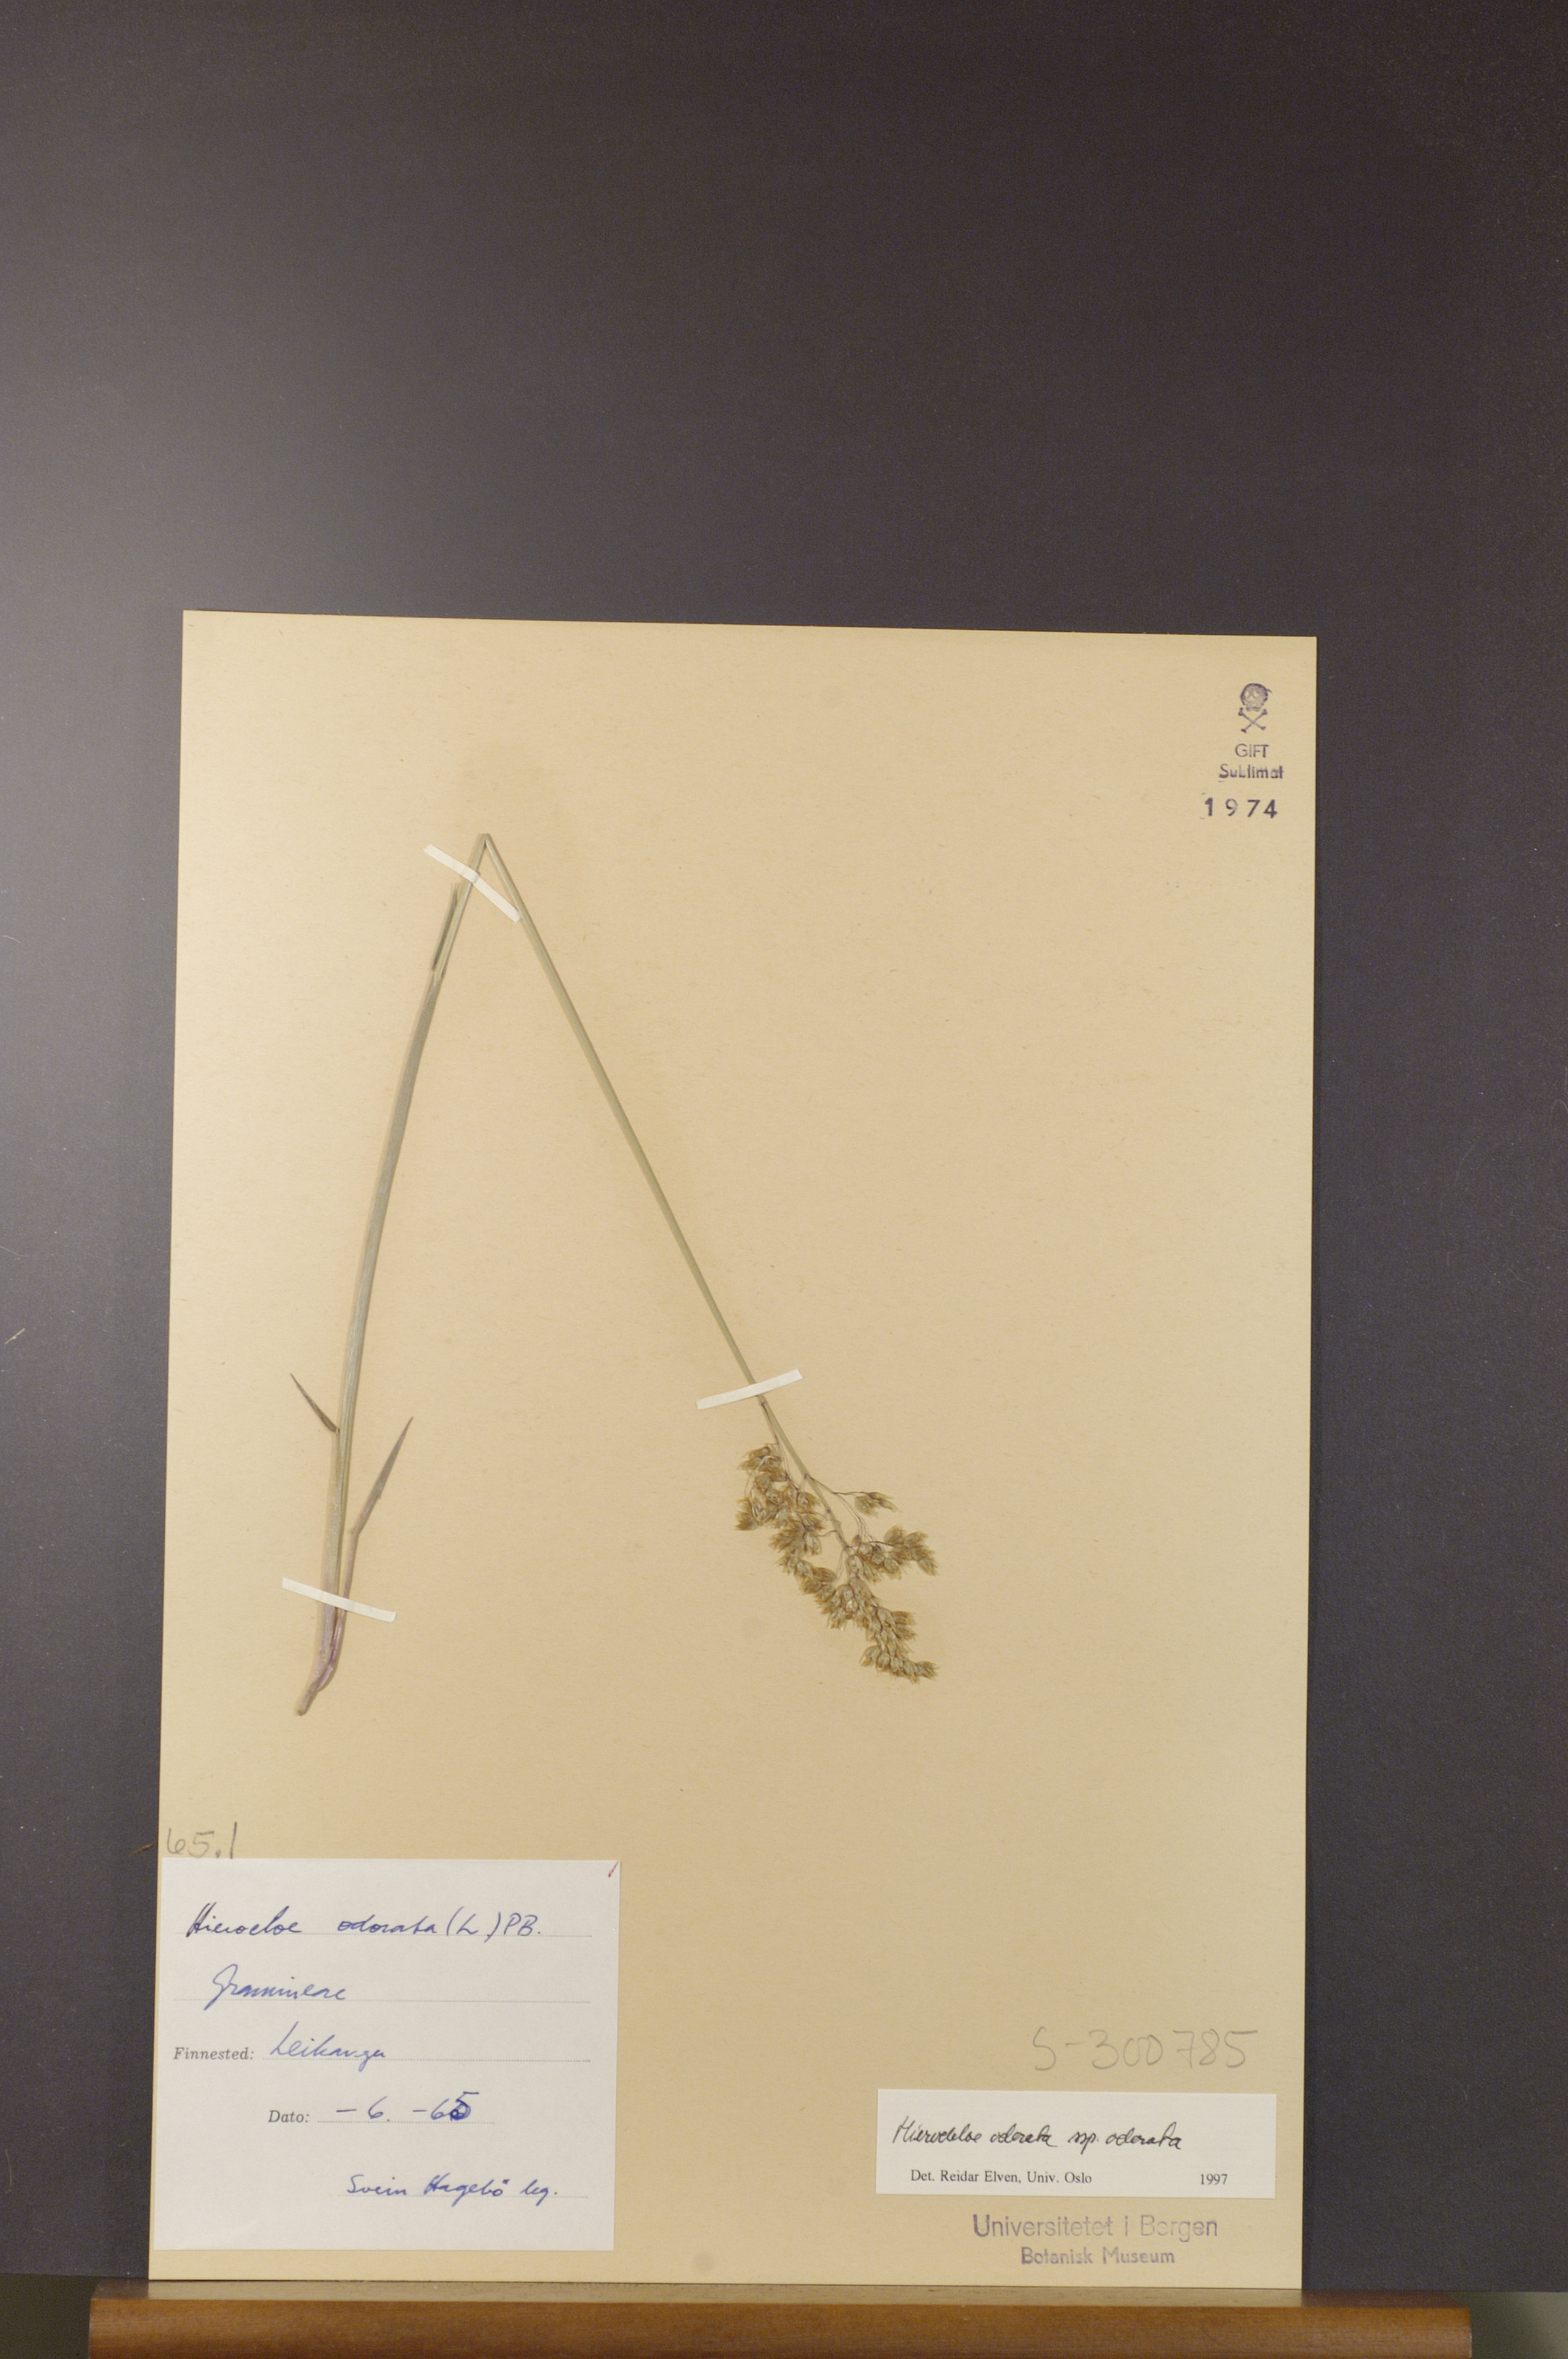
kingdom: Plantae
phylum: Tracheophyta
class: Liliopsida
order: Poales
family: Poaceae
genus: Anthoxanthum
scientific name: Anthoxanthum nitens
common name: Holy grass
